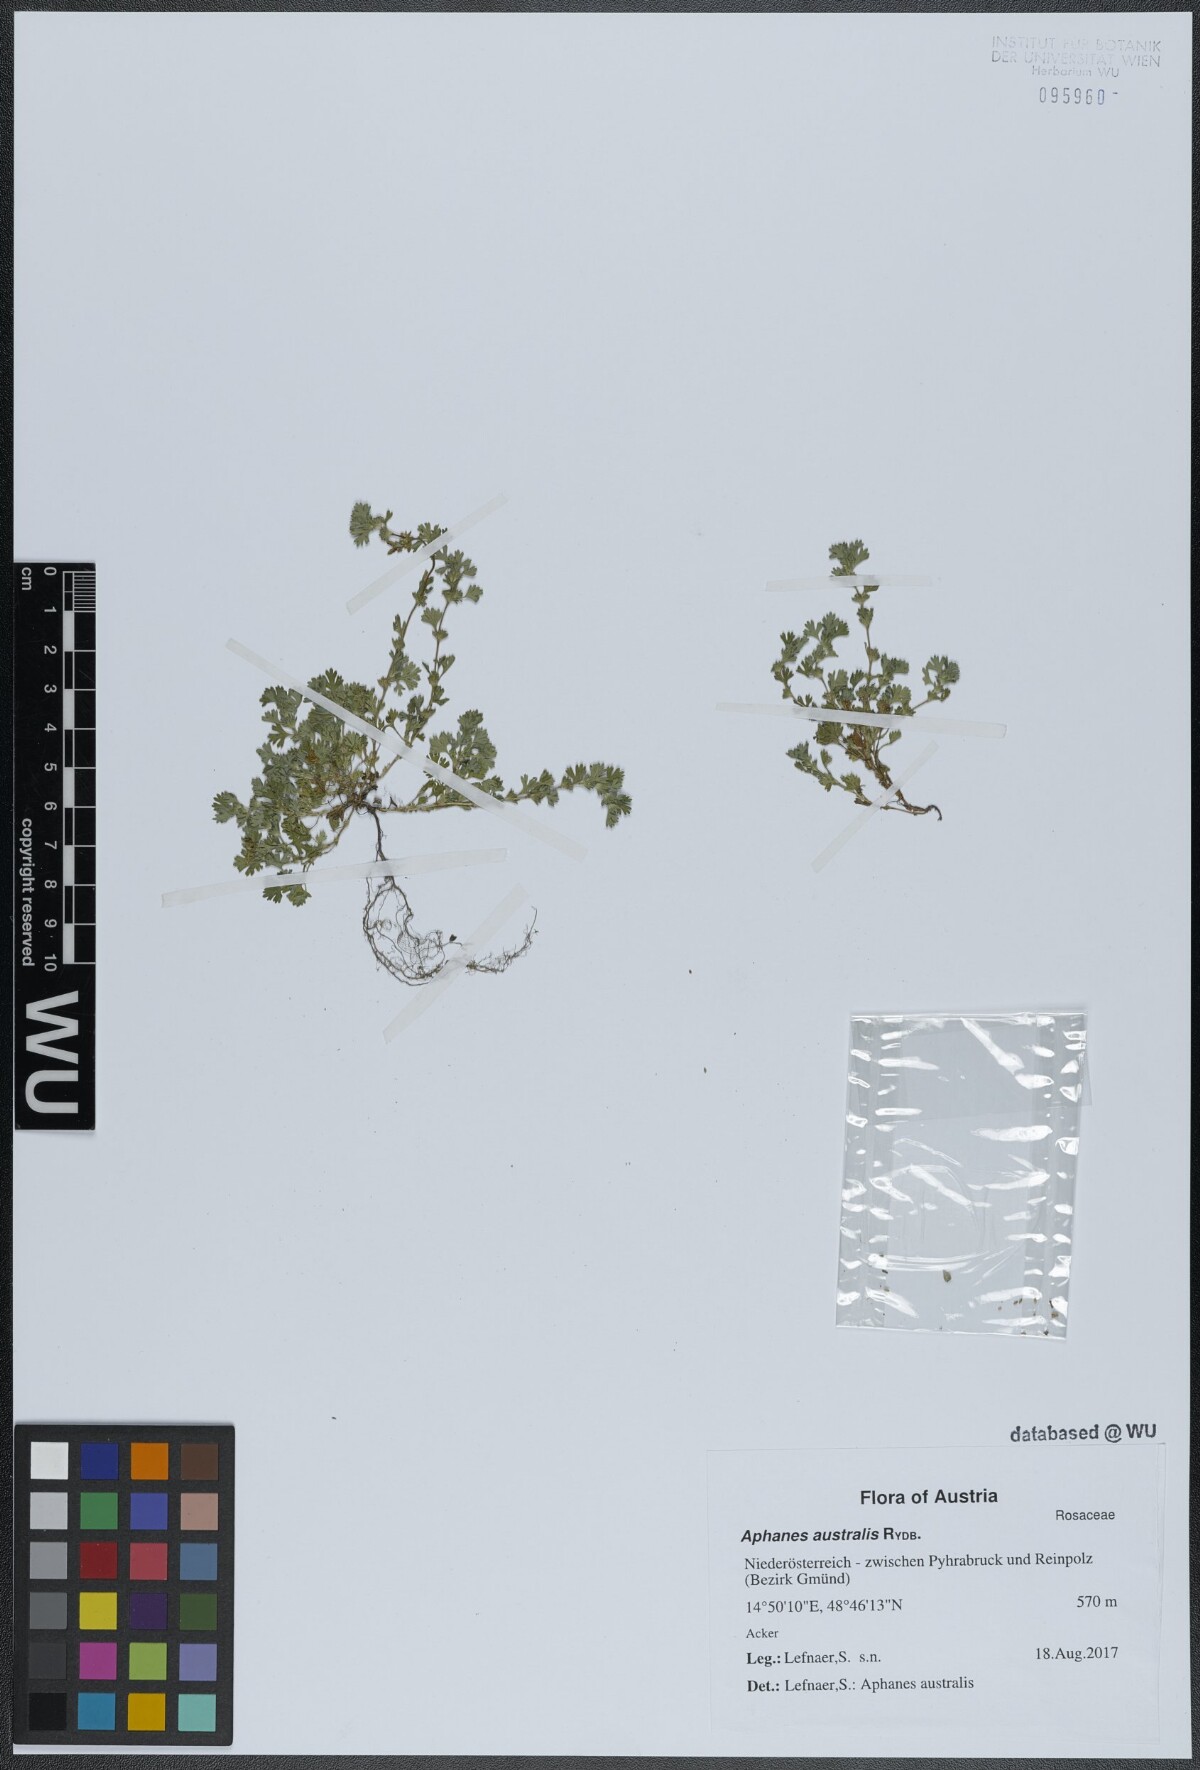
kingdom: Plantae
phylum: Tracheophyta
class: Magnoliopsida
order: Rosales
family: Rosaceae
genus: Aphanes
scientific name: Aphanes australis
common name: Slender parsley-piert
